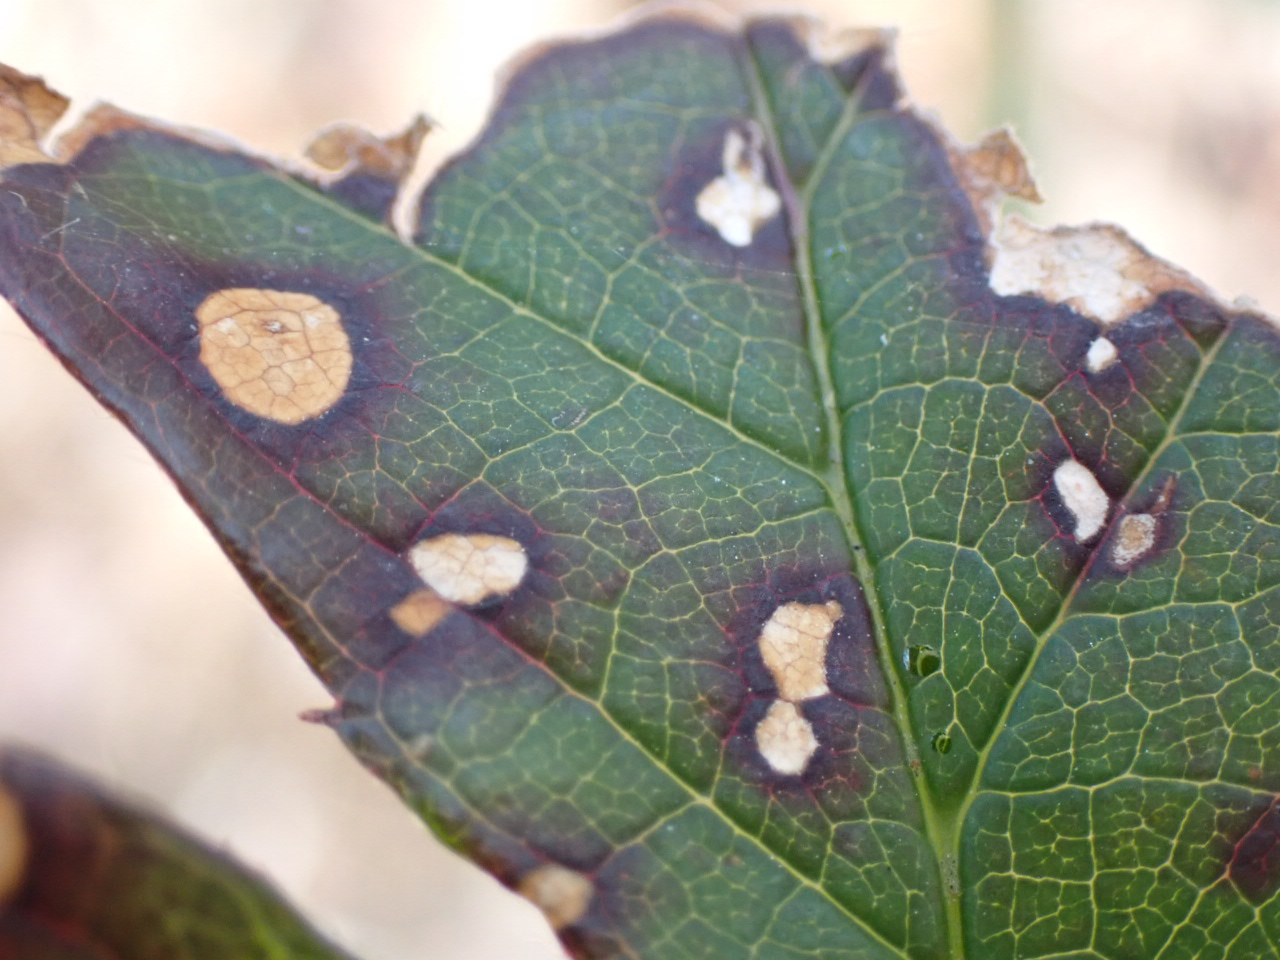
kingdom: Fungi
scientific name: Fungi
